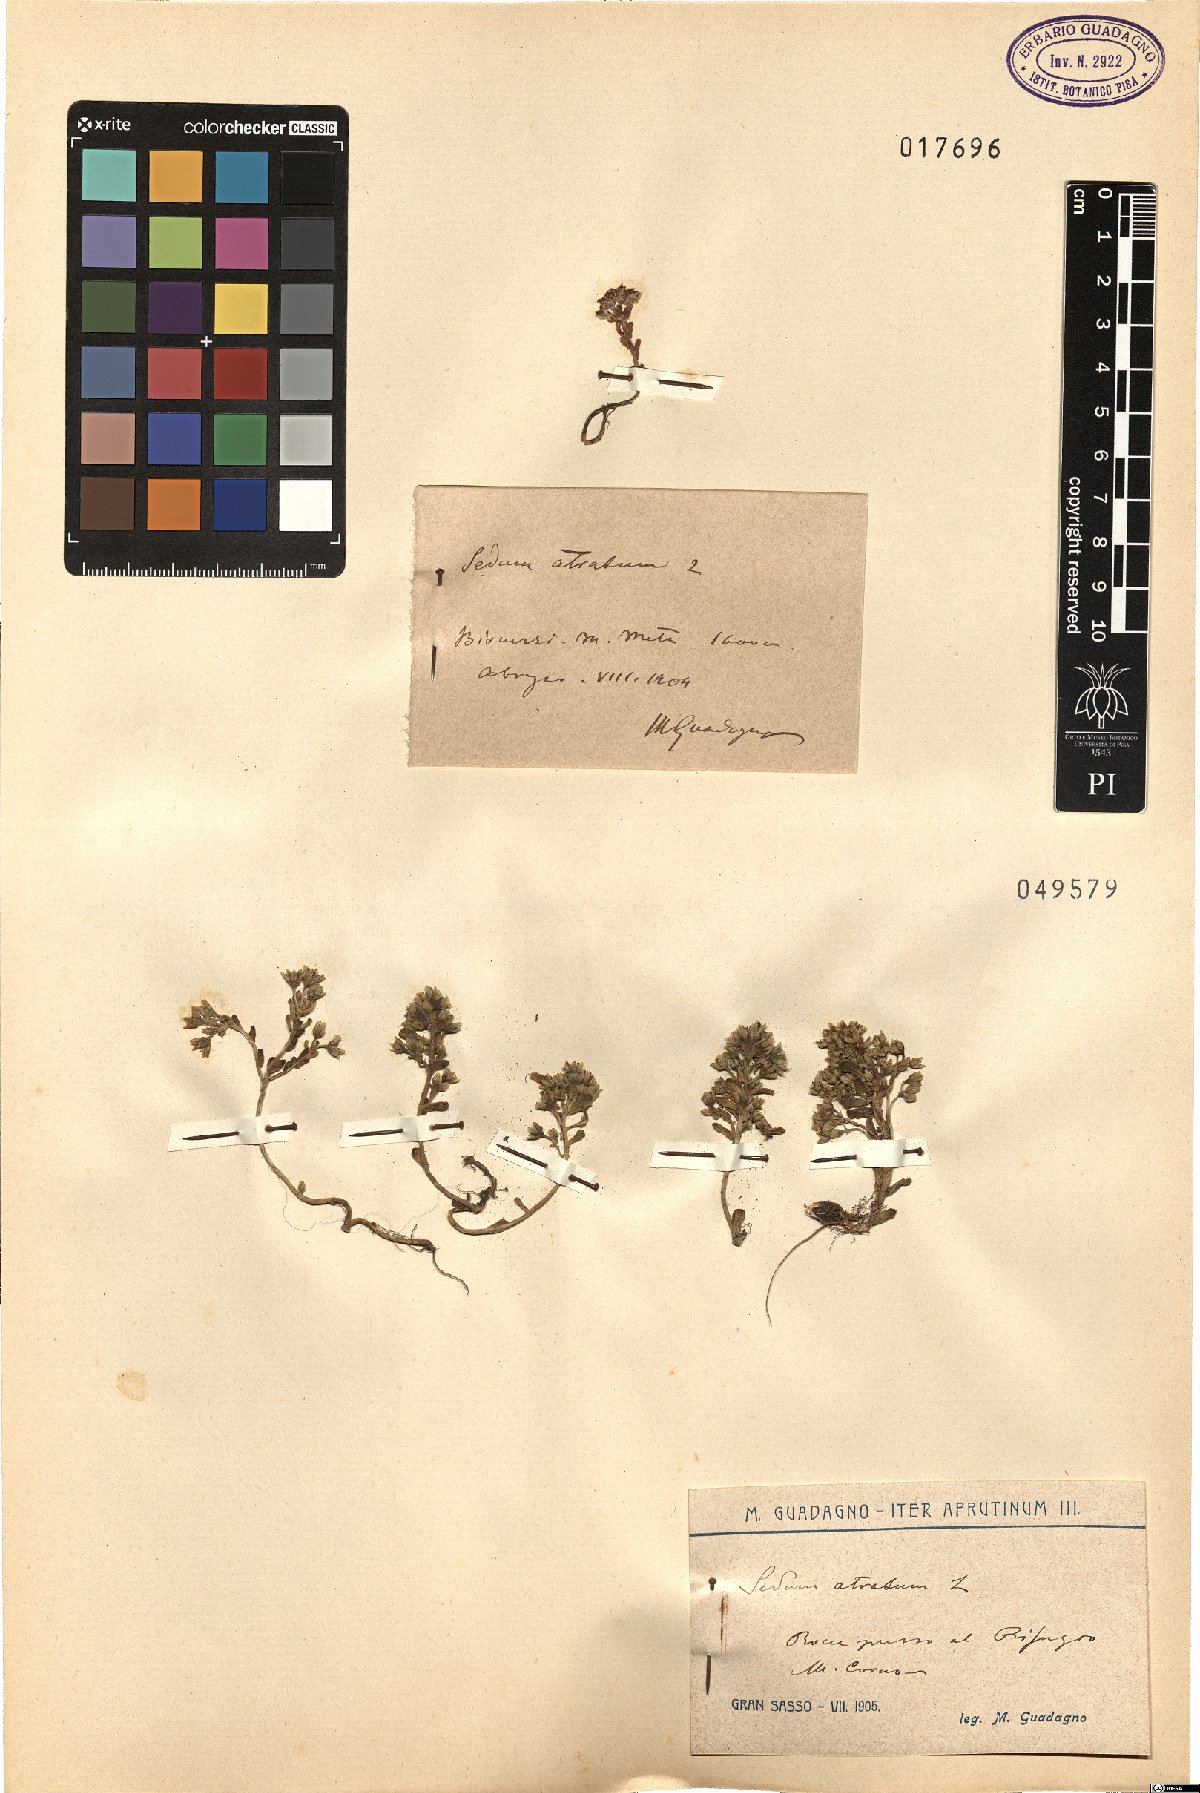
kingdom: Plantae
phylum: Tracheophyta
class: Magnoliopsida
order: Saxifragales
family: Crassulaceae
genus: Sedum
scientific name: Sedum atratum
